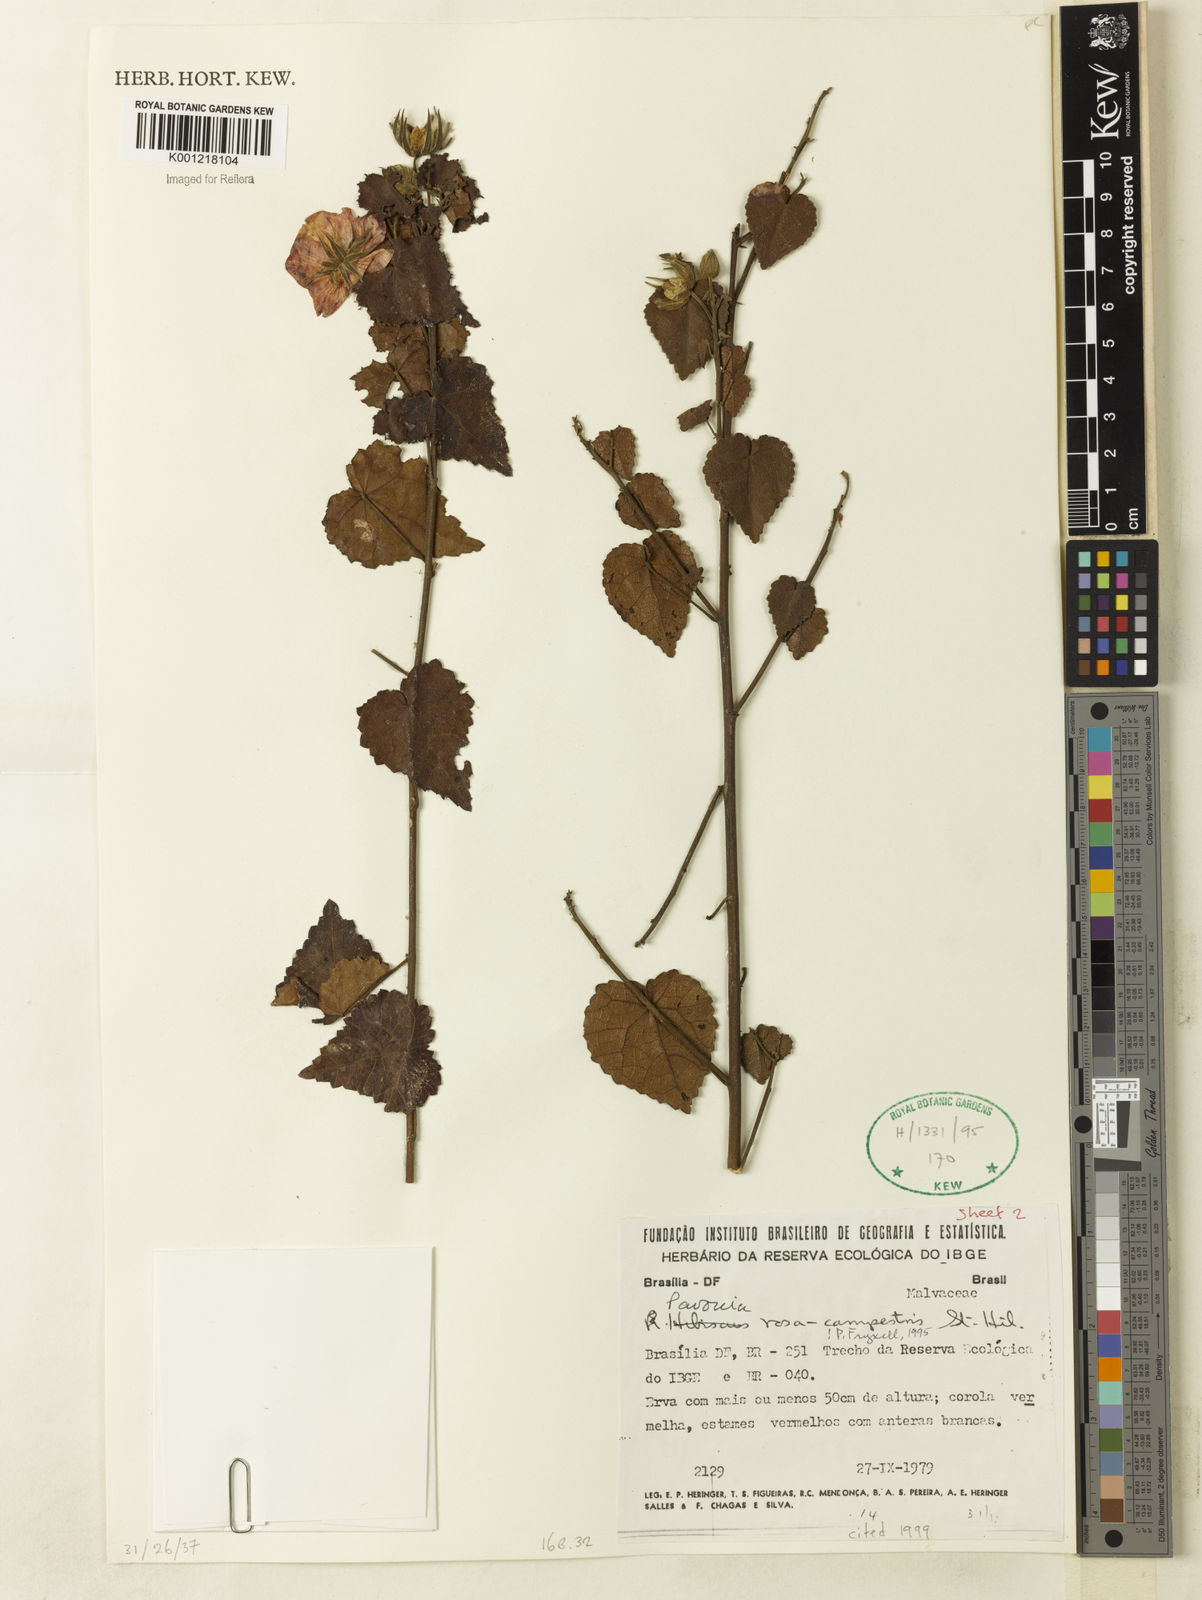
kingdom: Plantae
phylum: Tracheophyta
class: Magnoliopsida
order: Malvales
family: Malvaceae
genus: Pavonia
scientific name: Pavonia rosa-campestris
